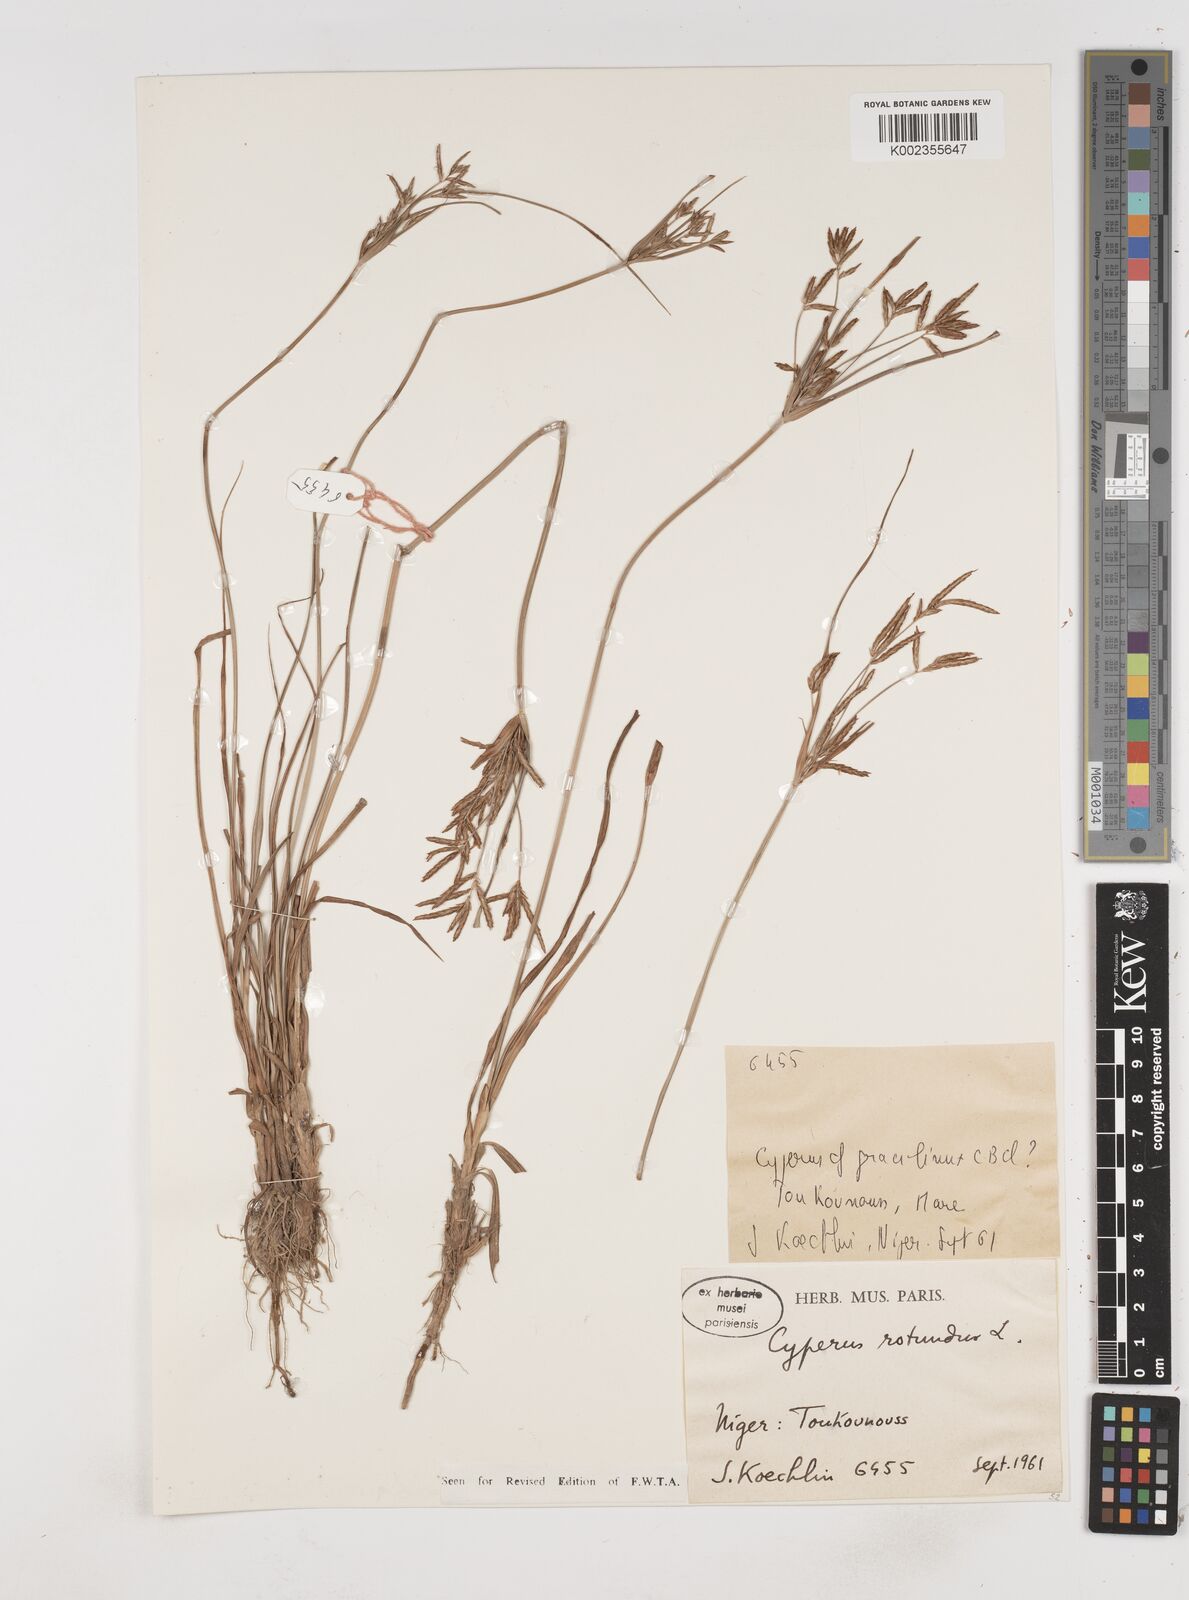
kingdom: Plantae
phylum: Tracheophyta
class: Liliopsida
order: Poales
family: Cyperaceae
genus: Cyperus
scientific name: Cyperus rotundus
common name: Nutgrass
